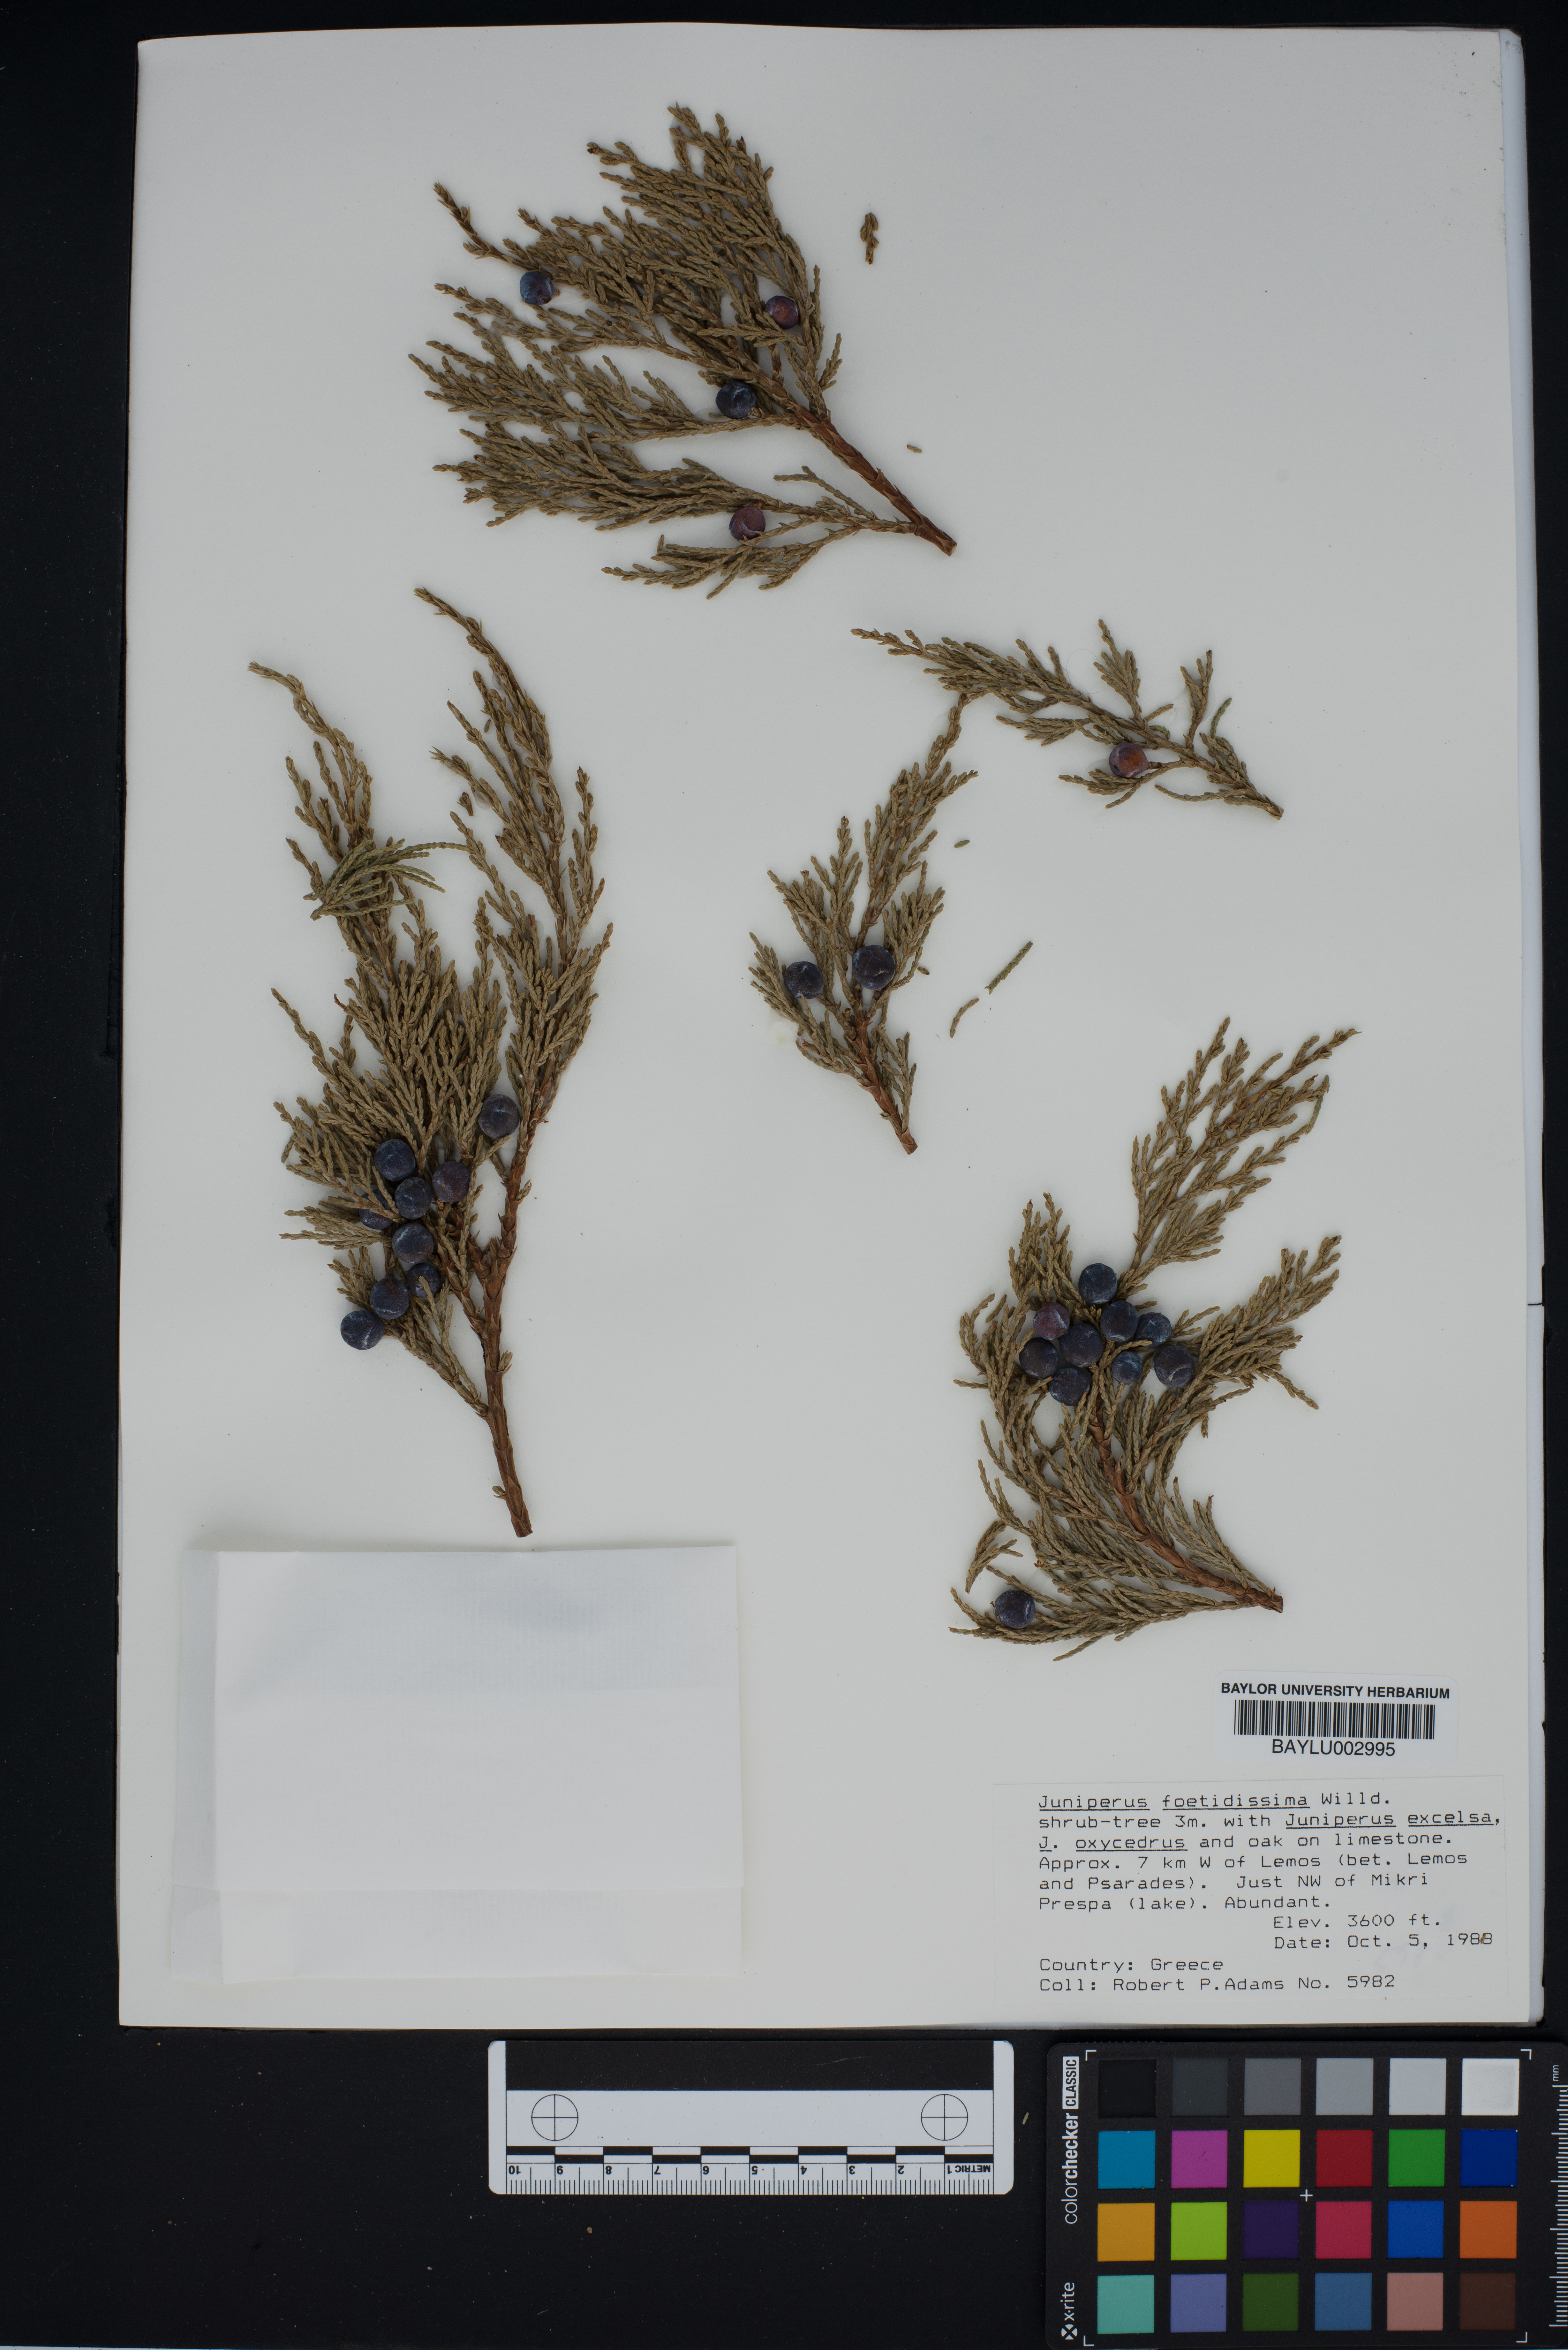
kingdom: Plantae
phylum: Tracheophyta
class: Pinopsida
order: Pinales
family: Cupressaceae
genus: Juniperus
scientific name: Juniperus foetidissima
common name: Stinking juniper
